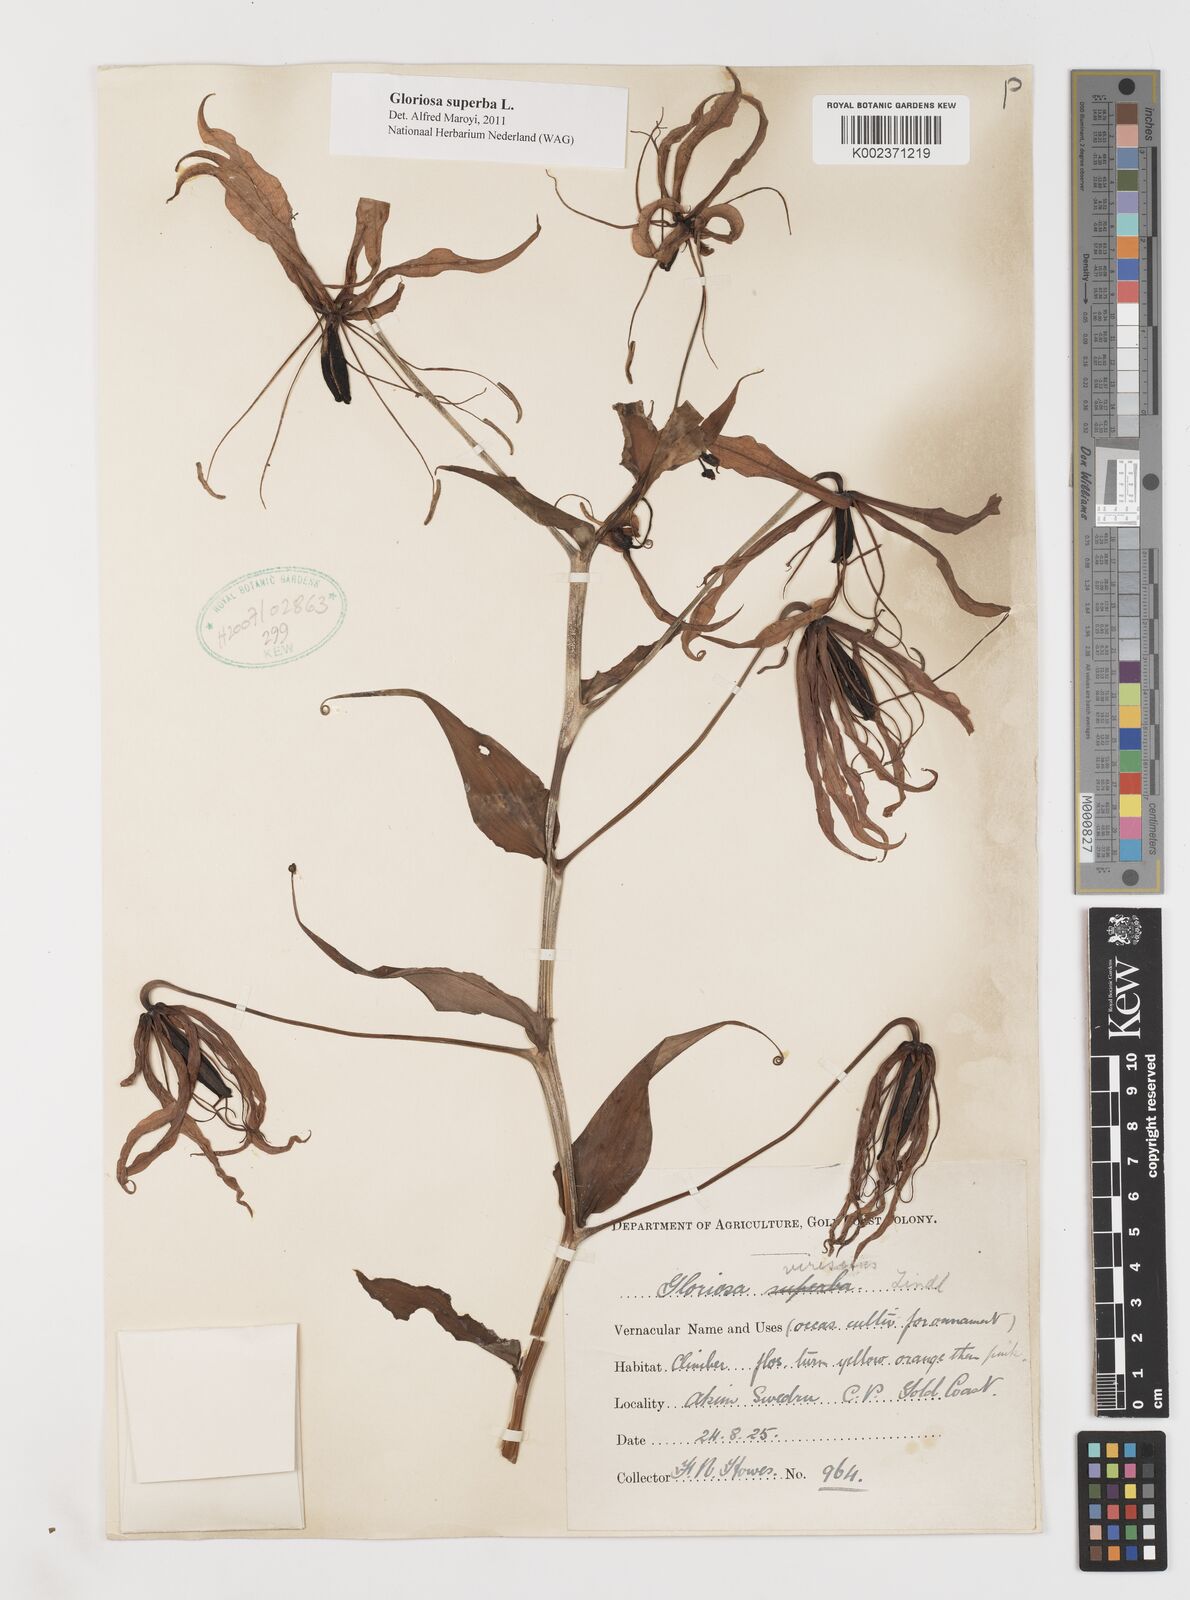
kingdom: Plantae
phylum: Tracheophyta
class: Liliopsida
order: Liliales
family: Colchicaceae
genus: Gloriosa
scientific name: Gloriosa superba
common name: Flame lily
